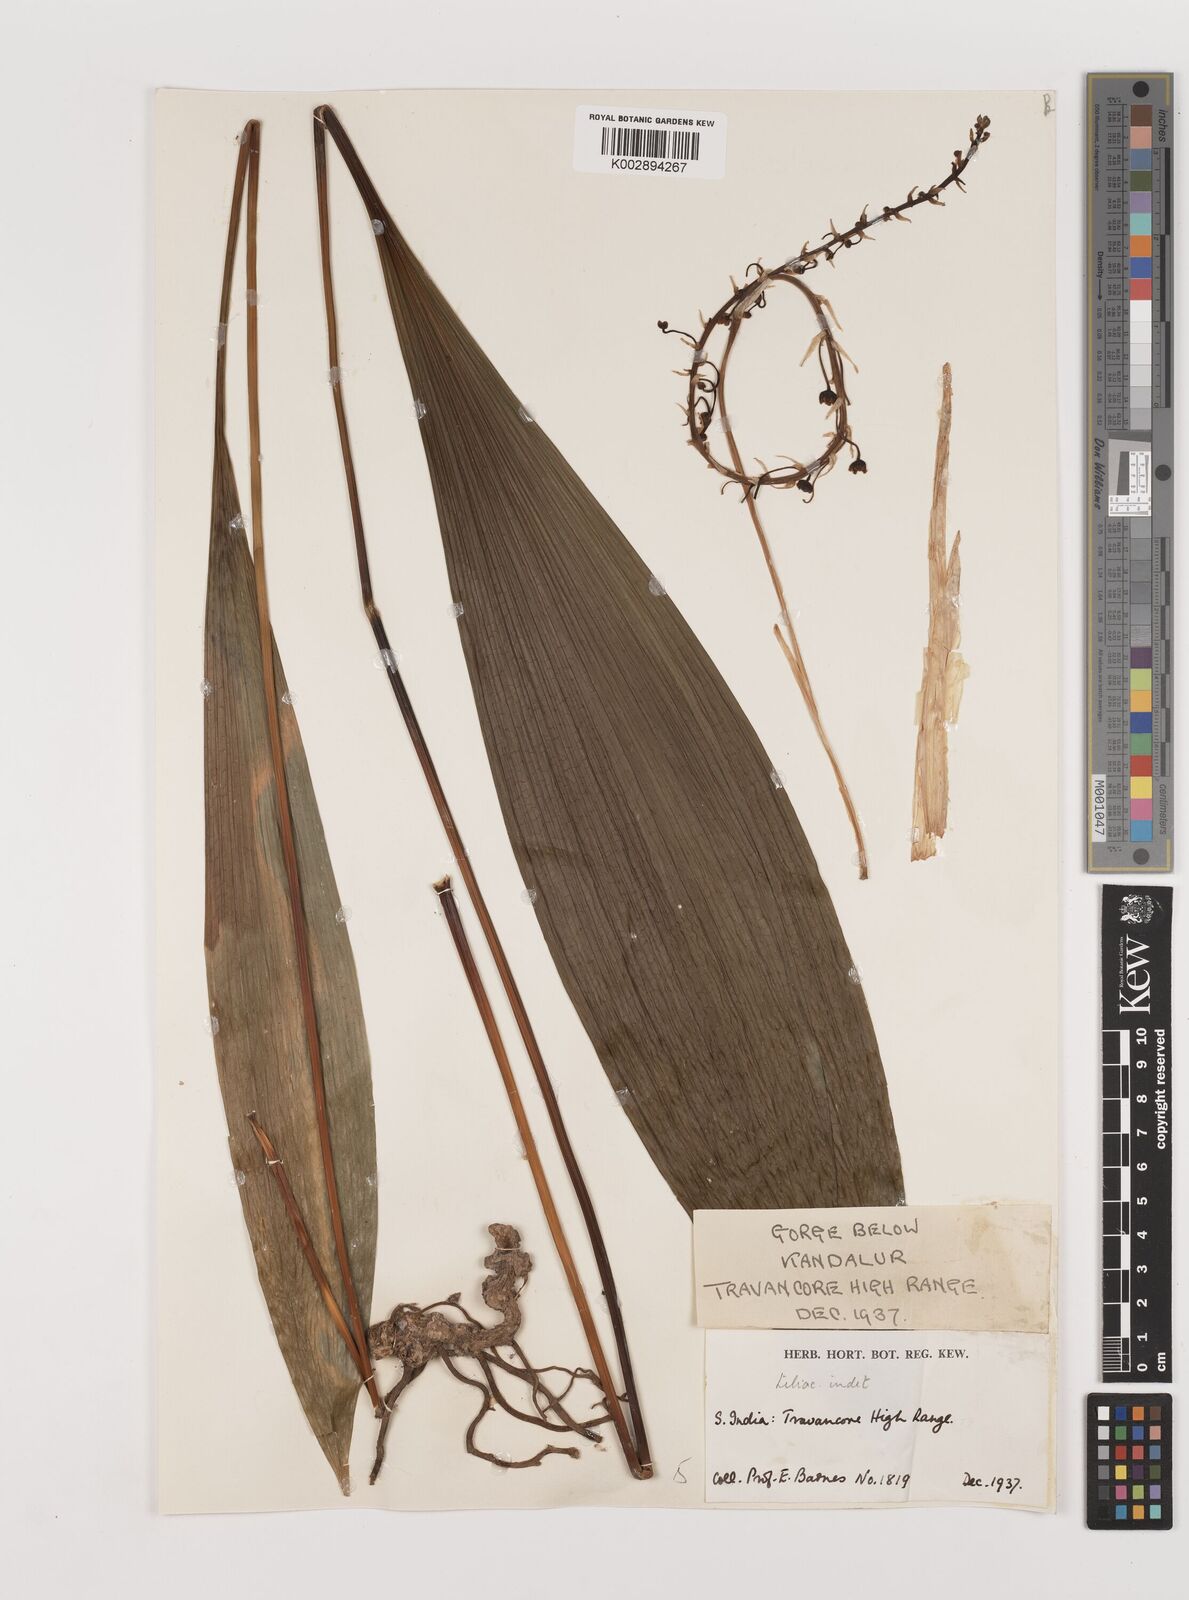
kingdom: Plantae
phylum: Tracheophyta
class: Liliopsida
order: Asparagales
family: Asparagaceae
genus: Peliosanthes
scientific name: Peliosanthes teta
